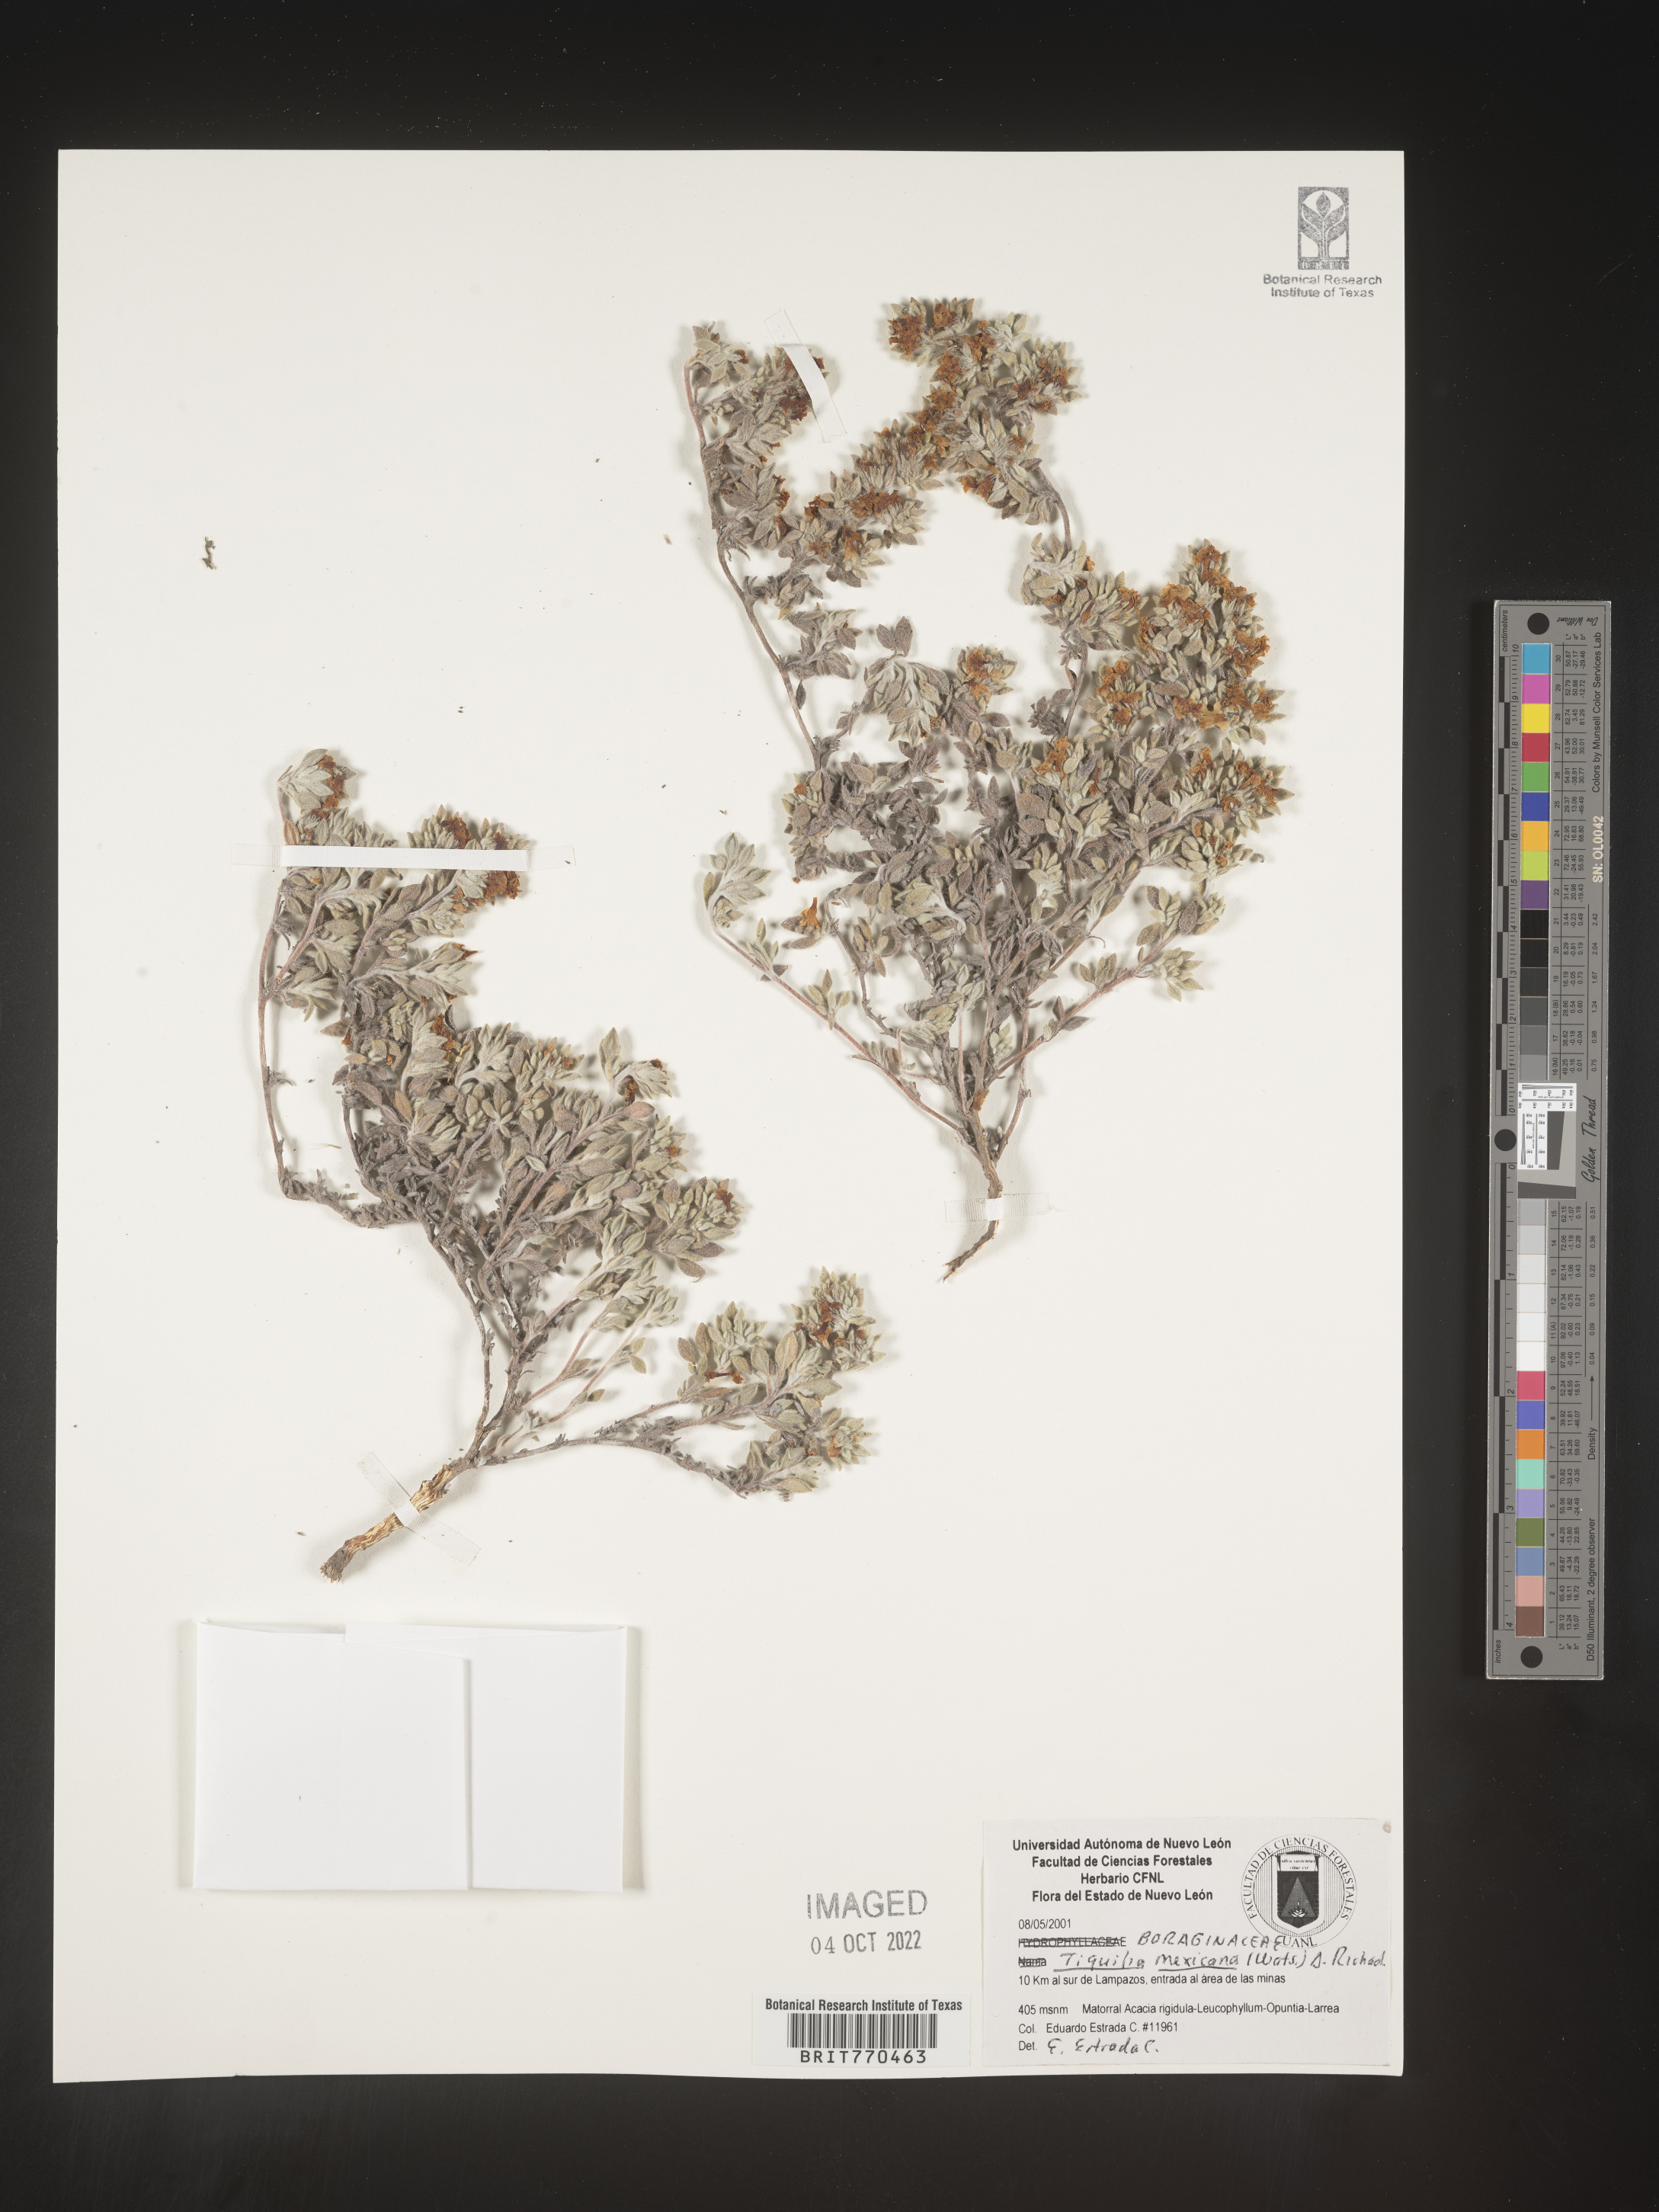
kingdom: Plantae
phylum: Tracheophyta
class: Magnoliopsida
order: Boraginales
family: Ehretiaceae
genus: Tiquilia
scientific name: Tiquilia
